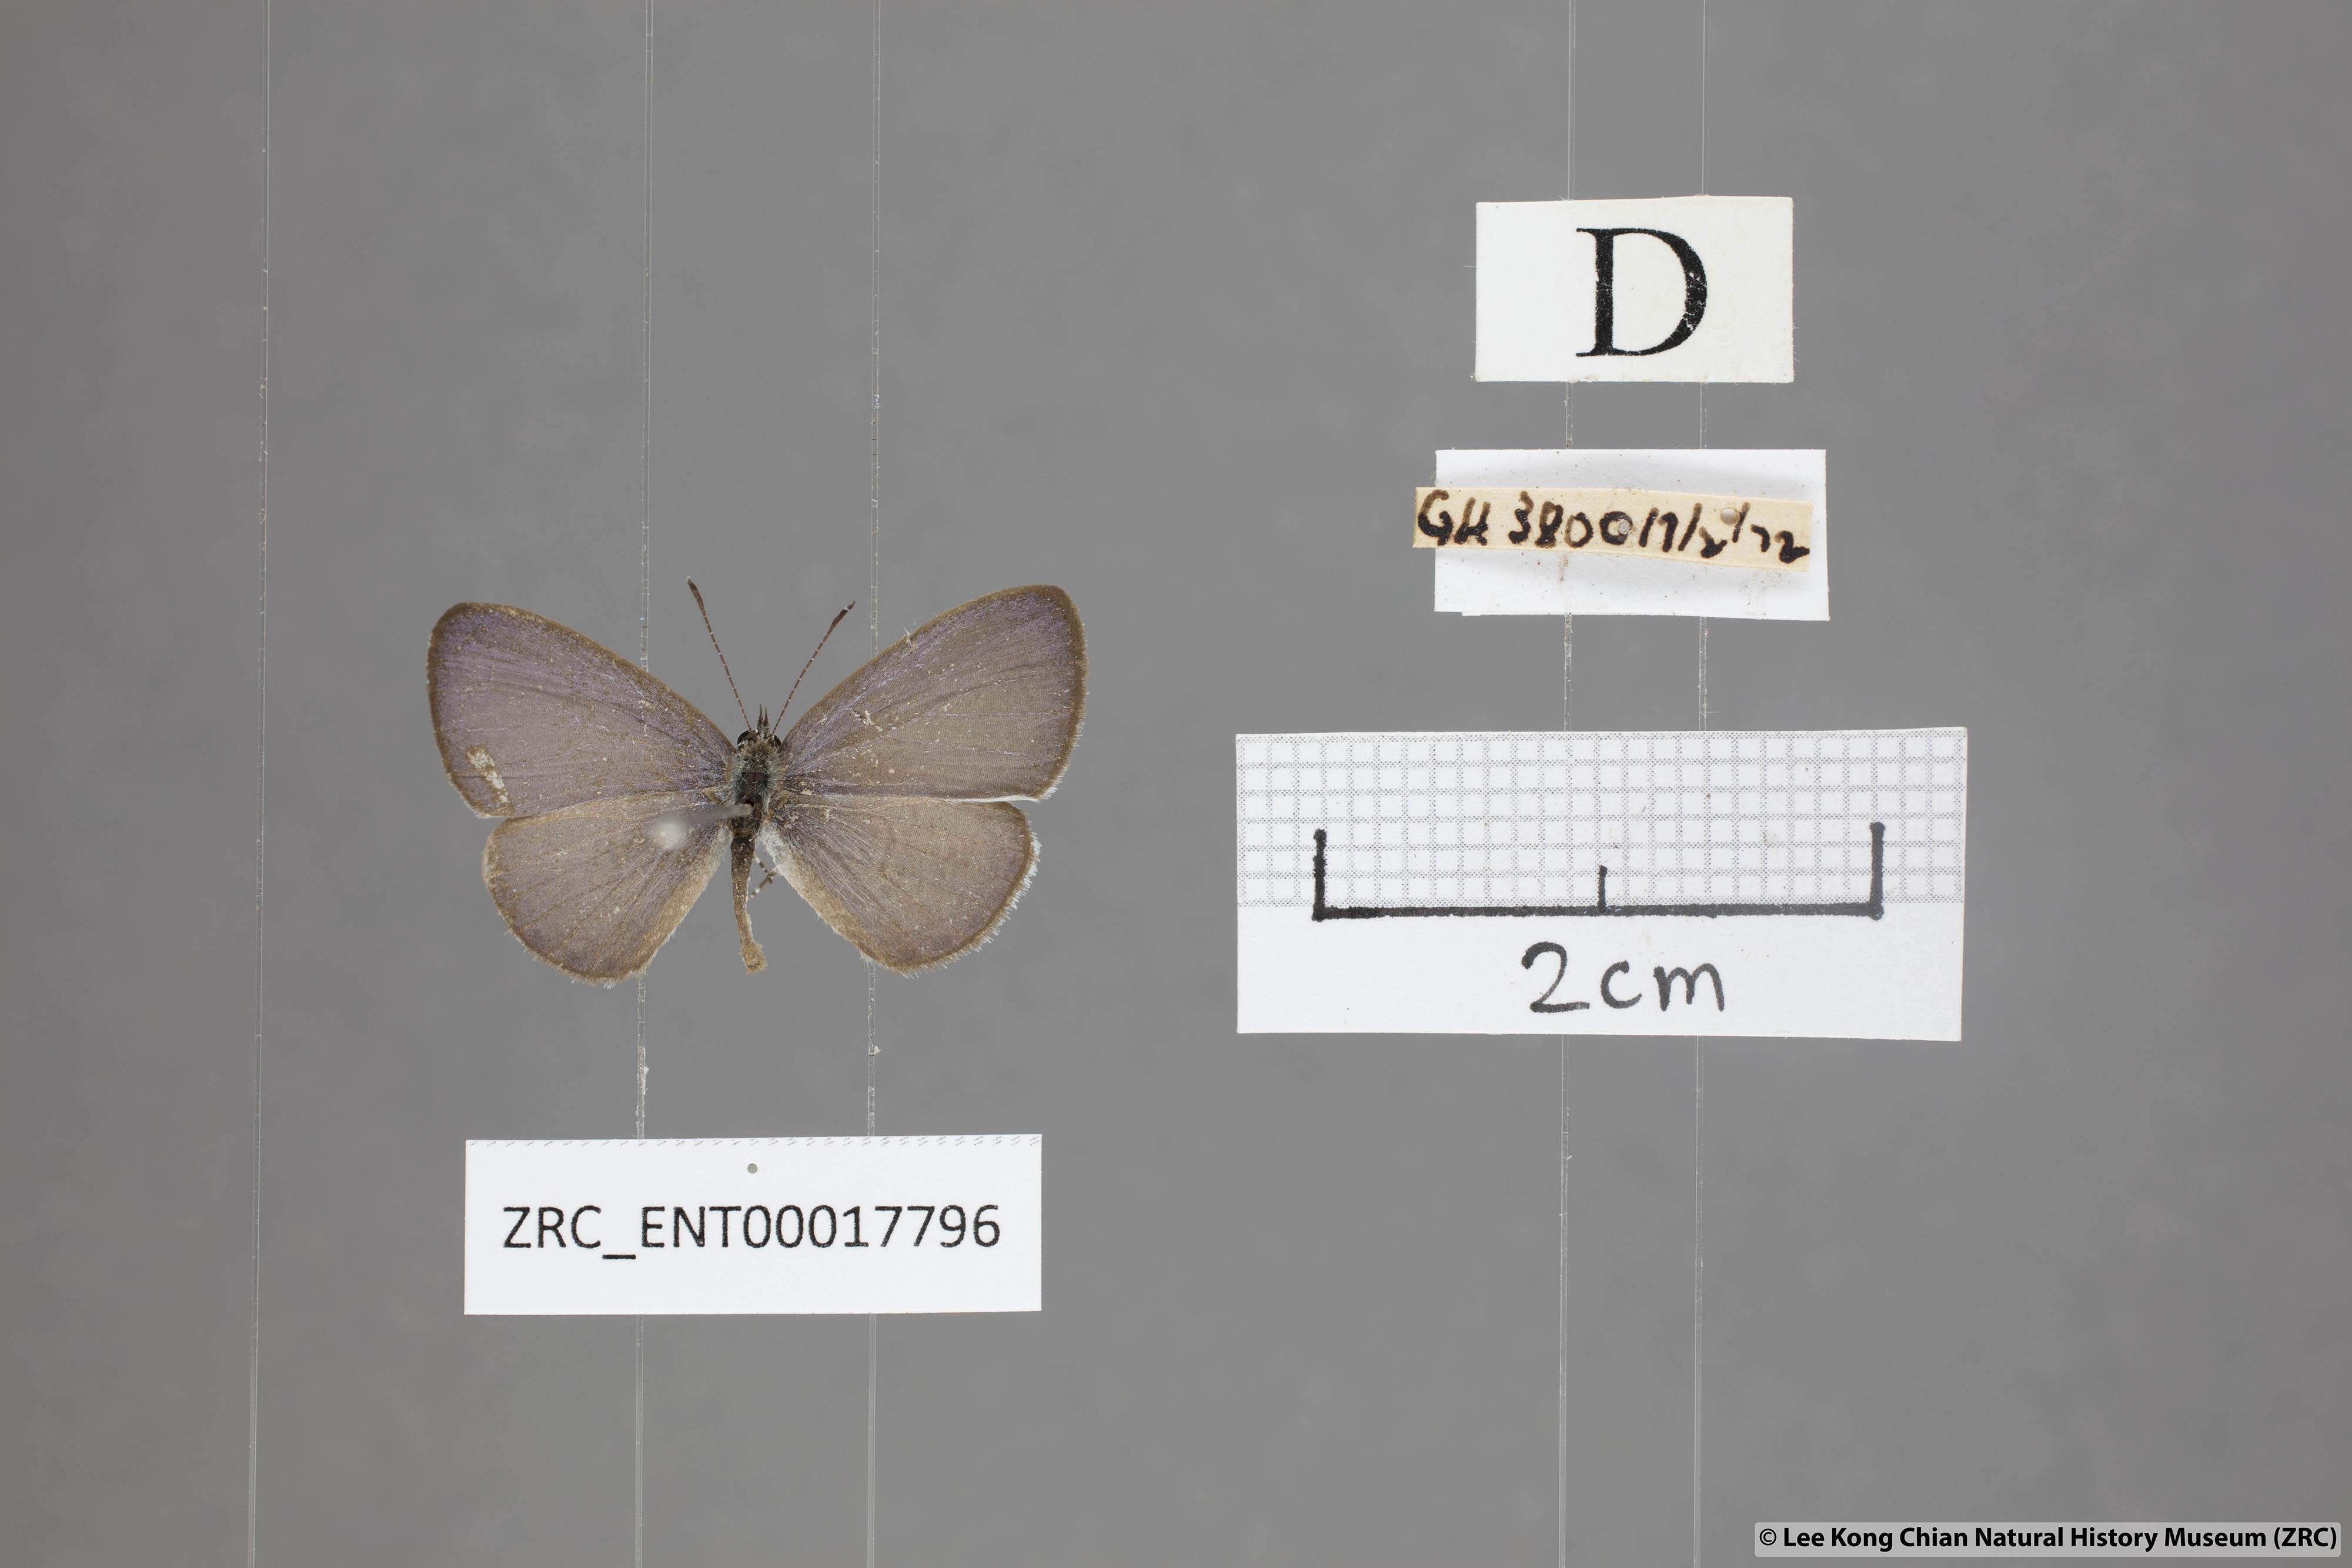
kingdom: Animalia
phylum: Arthropoda
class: Insecta
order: Lepidoptera
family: Lycaenidae
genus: Monodontides
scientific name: Monodontides
